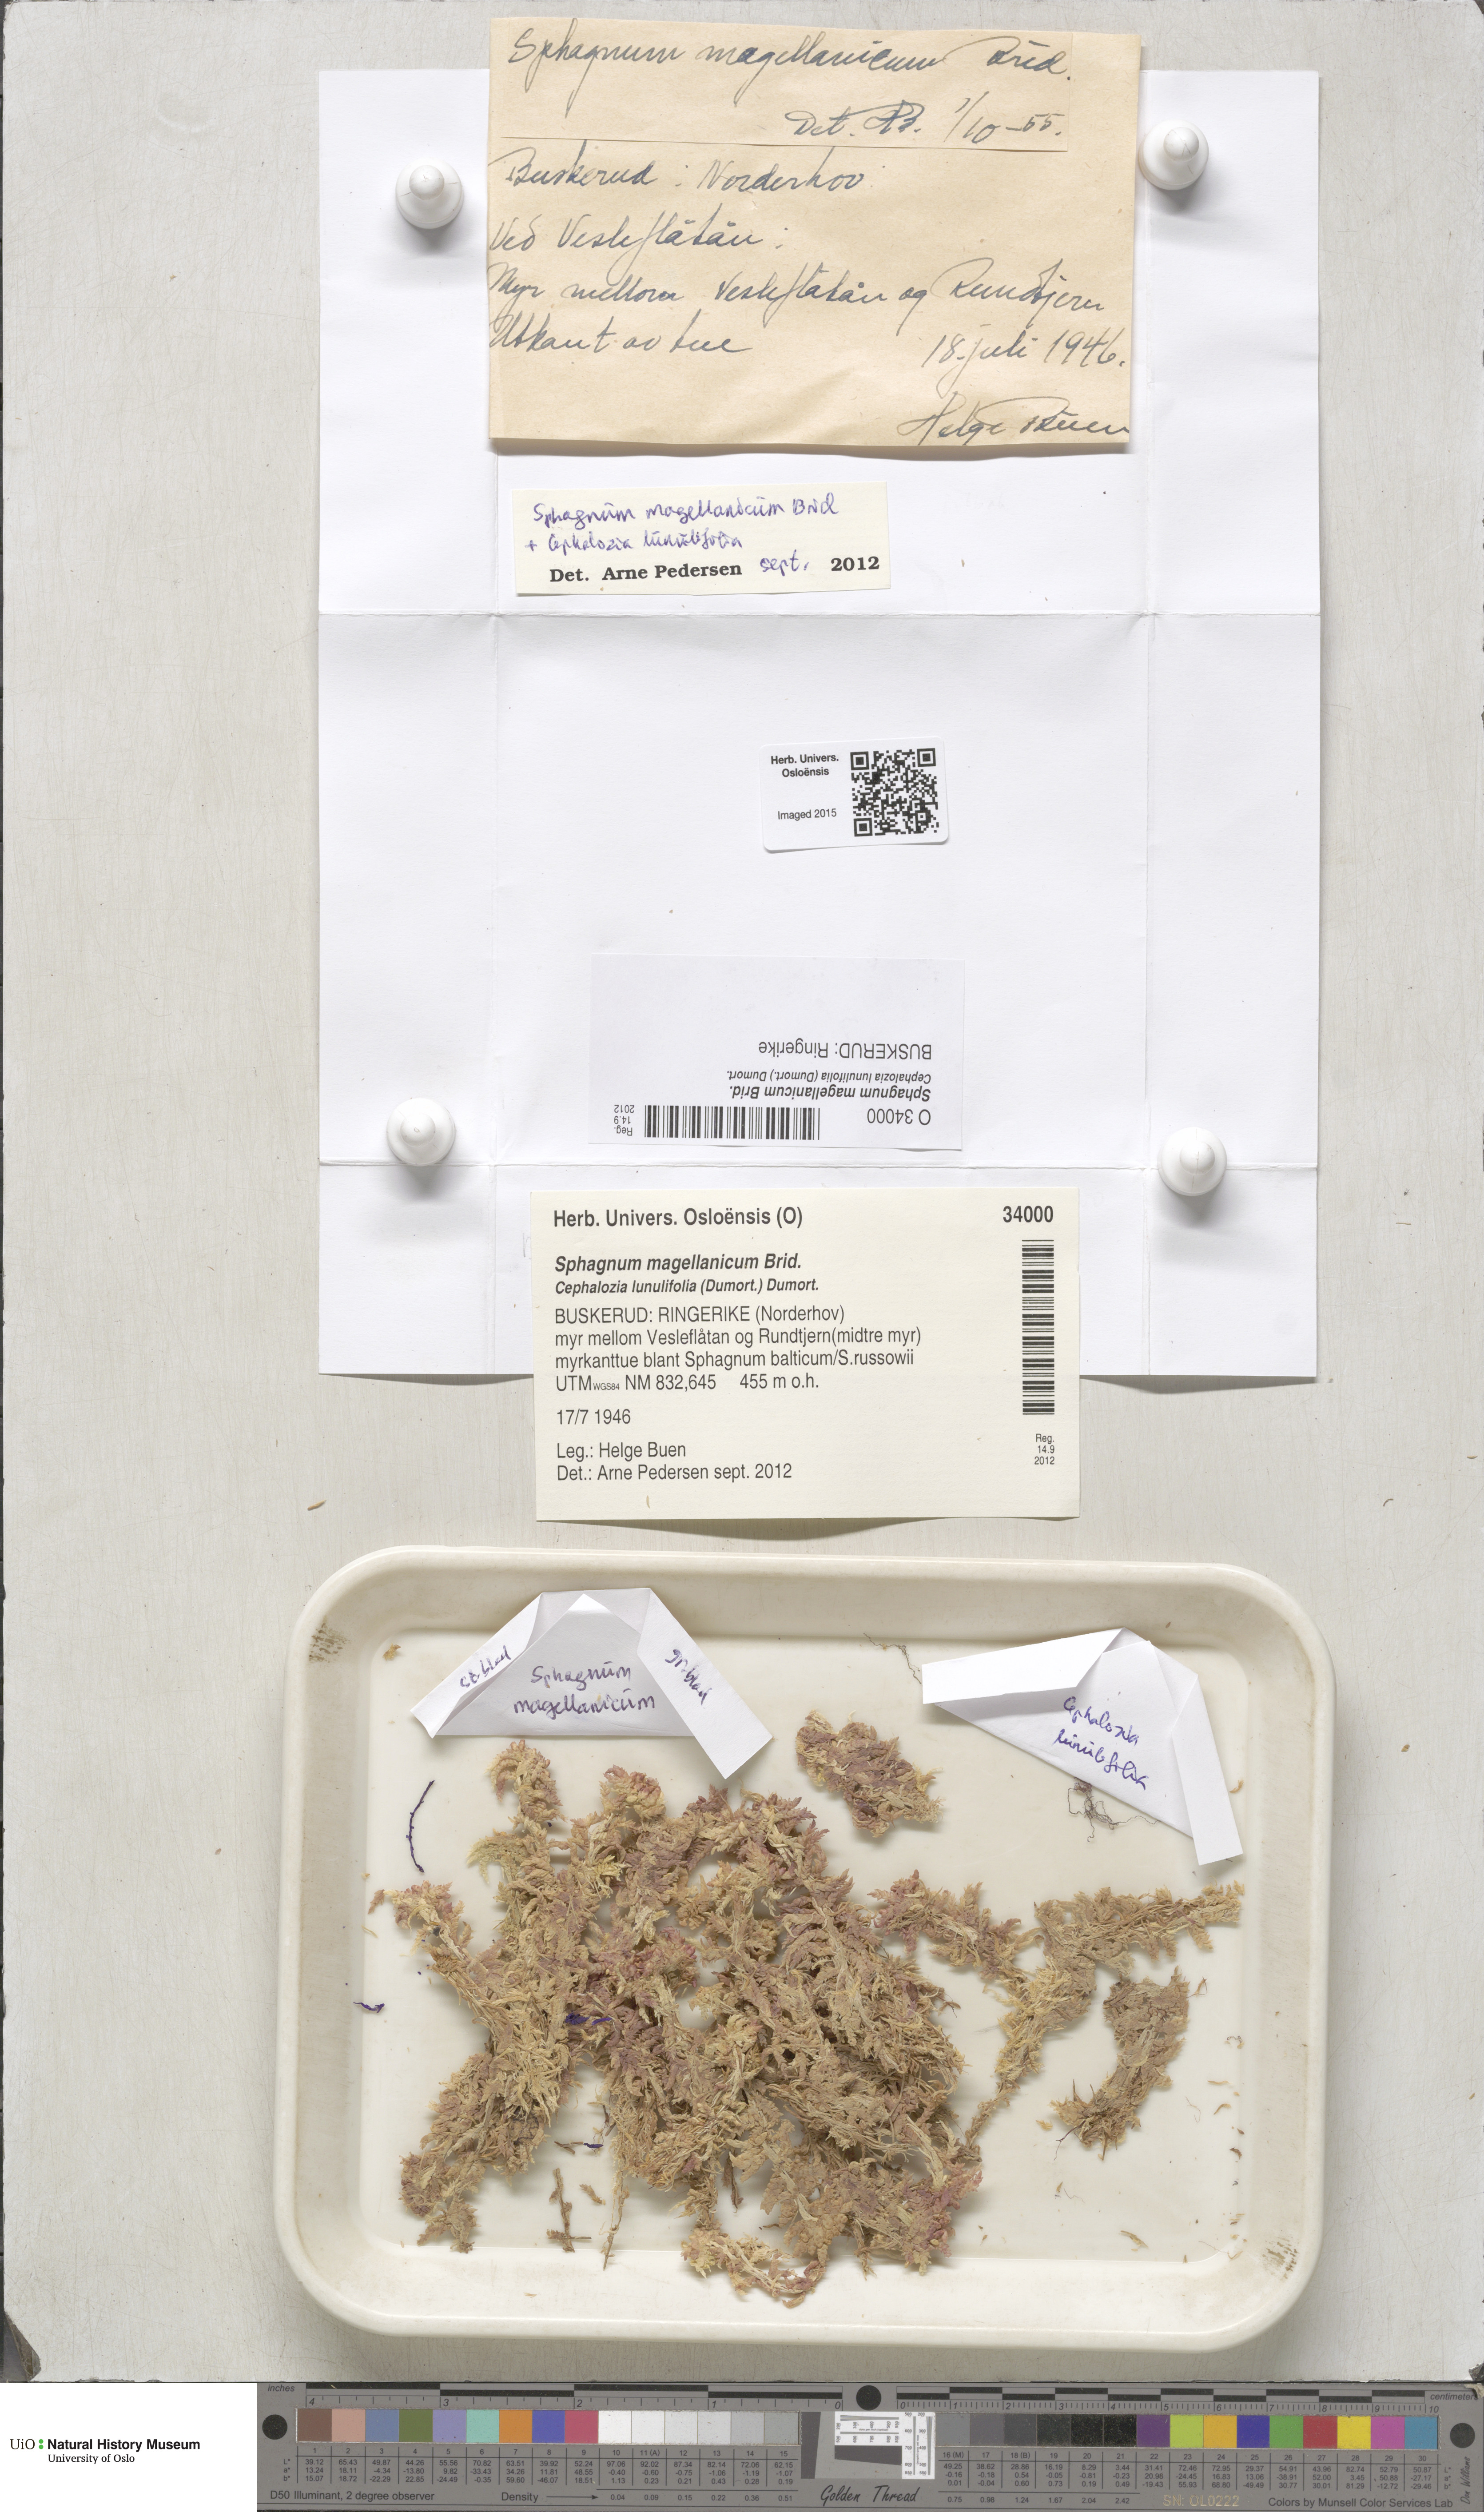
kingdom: Plantae
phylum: Bryophyta
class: Sphagnopsida
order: Sphagnales
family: Sphagnaceae
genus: Sphagnum
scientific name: Sphagnum magellanicum
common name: Magellan's peat moss
